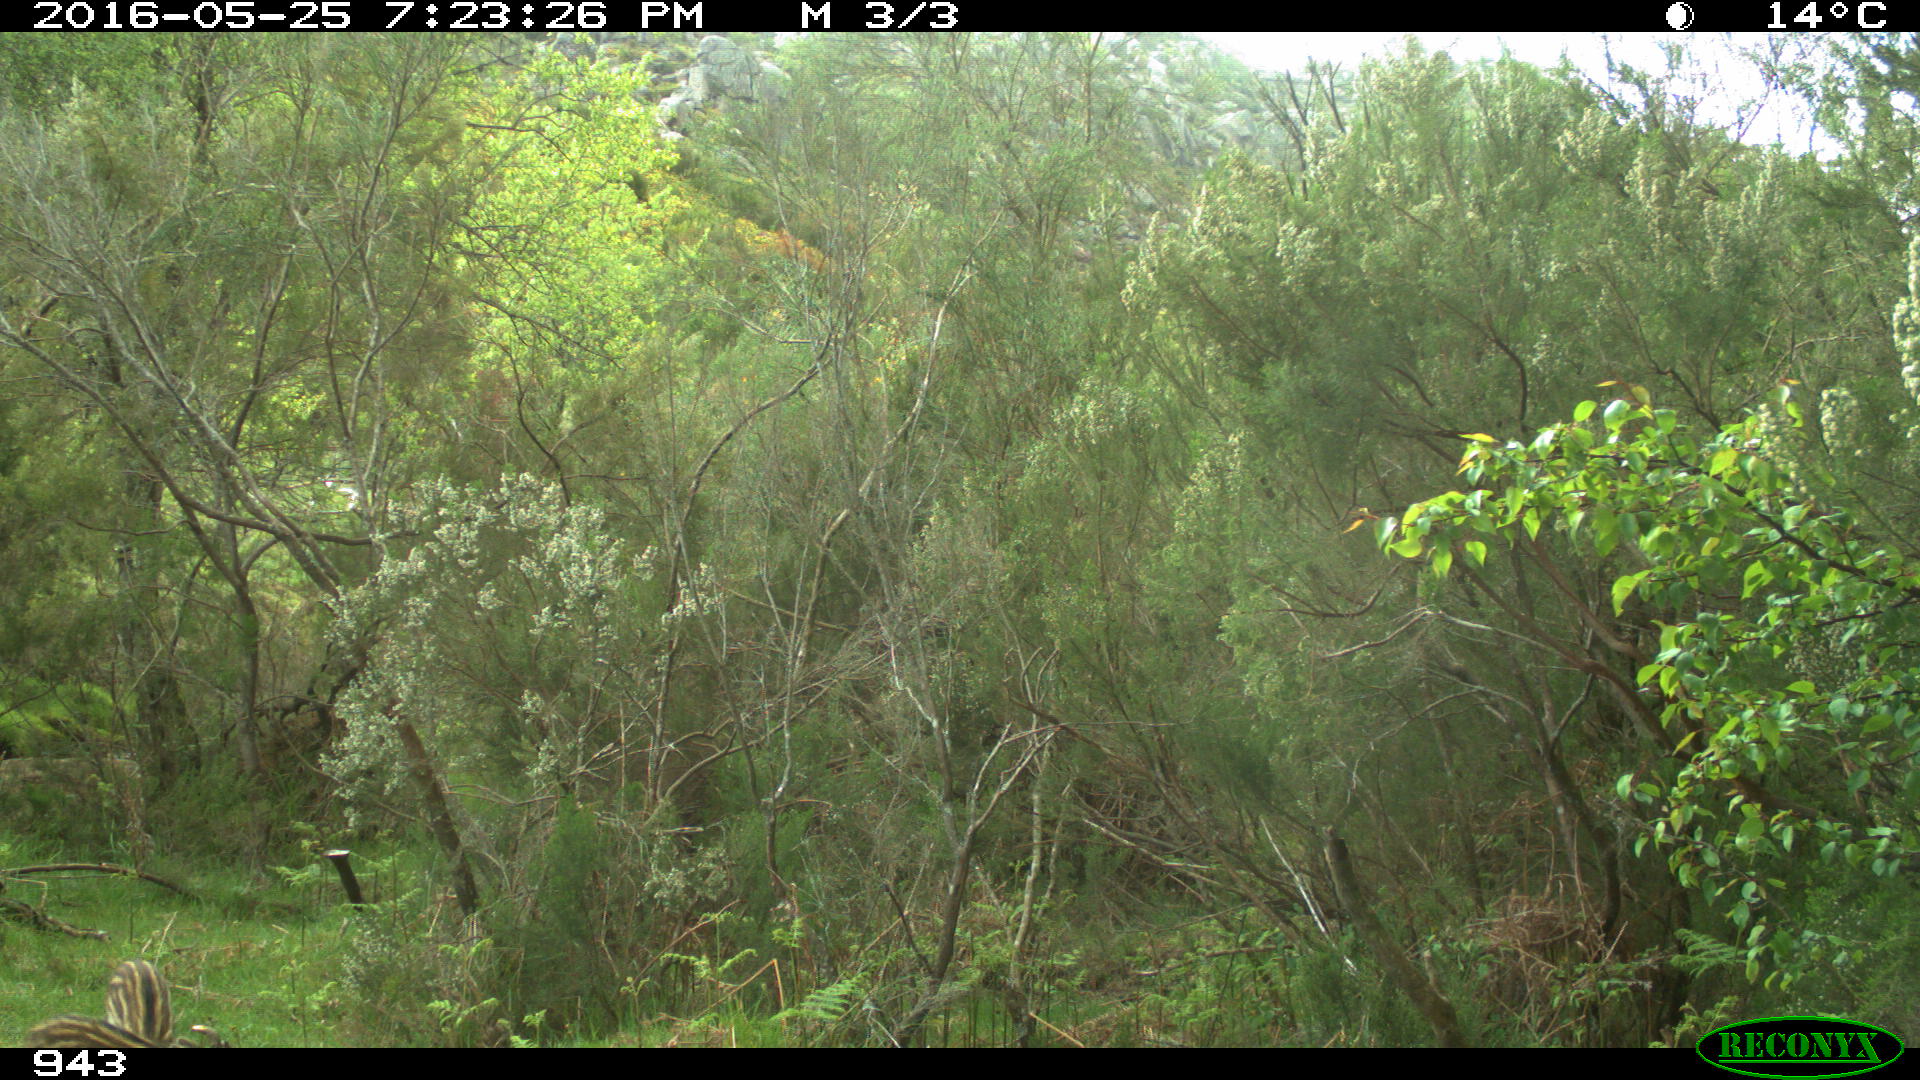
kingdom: Animalia
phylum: Chordata
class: Mammalia
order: Artiodactyla
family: Suidae
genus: Sus
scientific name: Sus scrofa
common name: Wild boar
